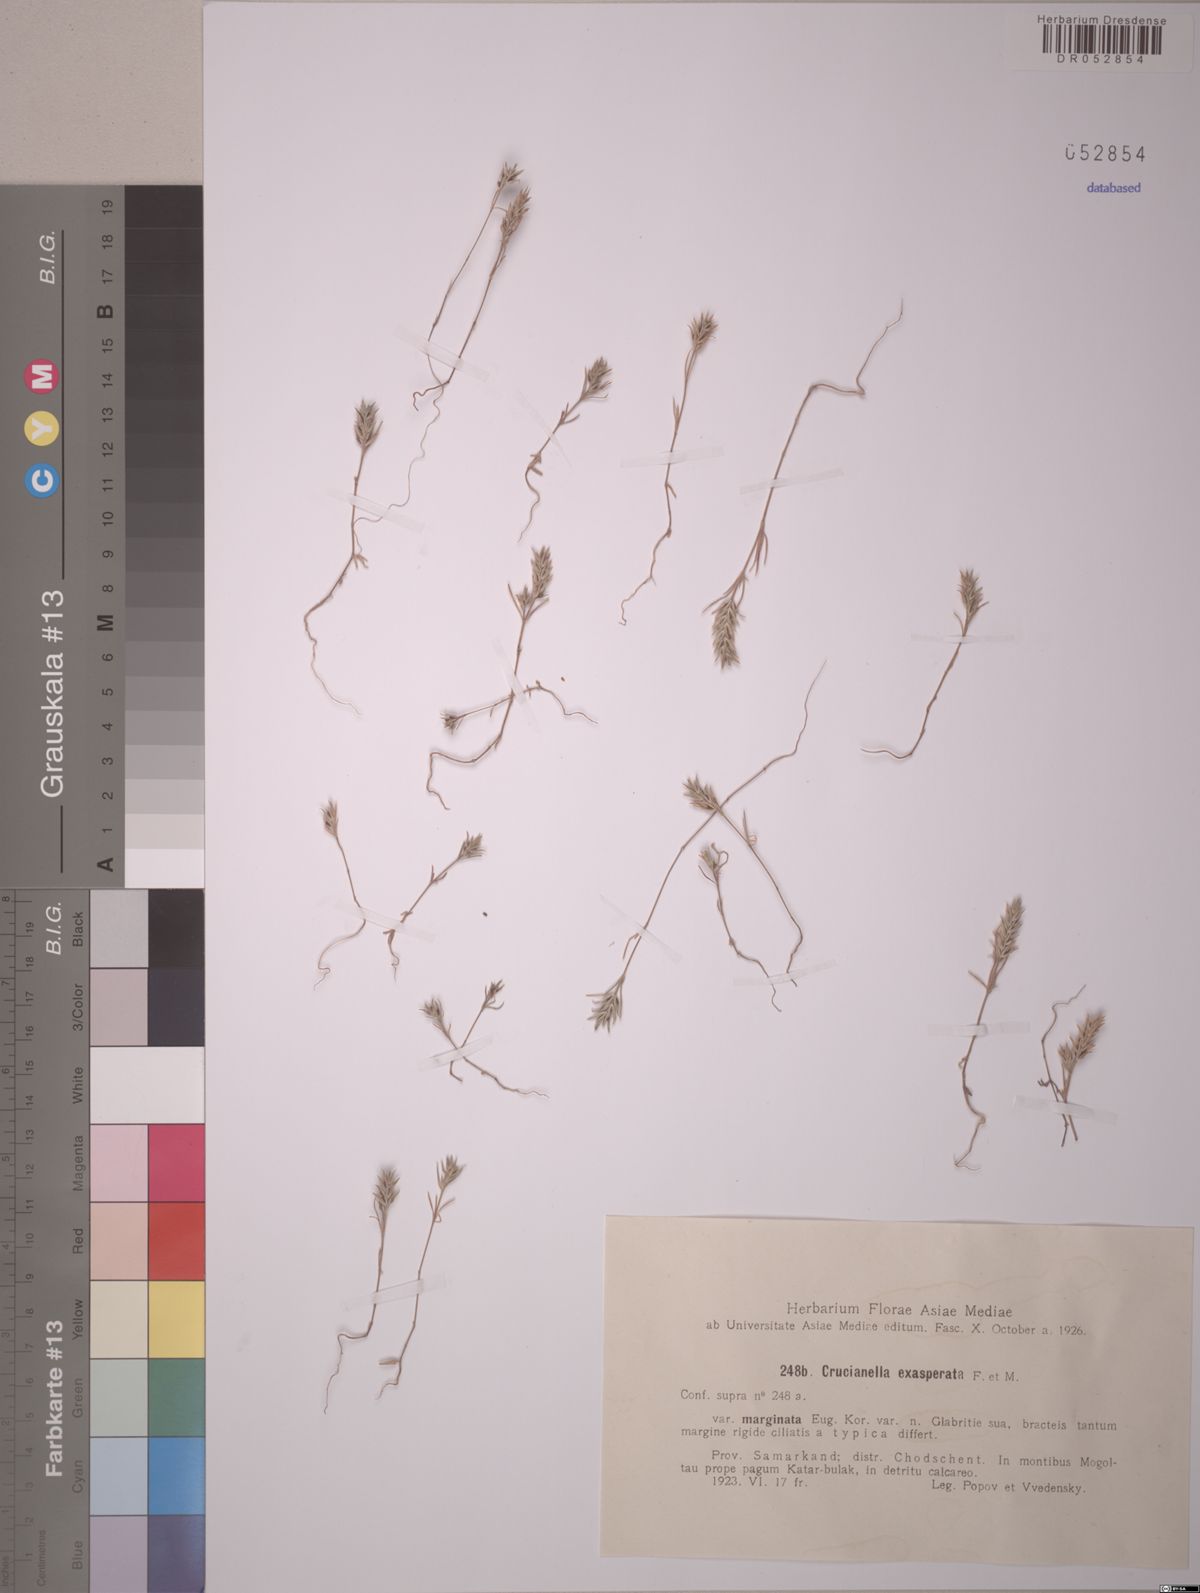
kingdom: Plantae
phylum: Tracheophyta
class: Magnoliopsida
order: Gentianales
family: Rubiaceae
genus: Crucianella
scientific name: Crucianella exasperata
